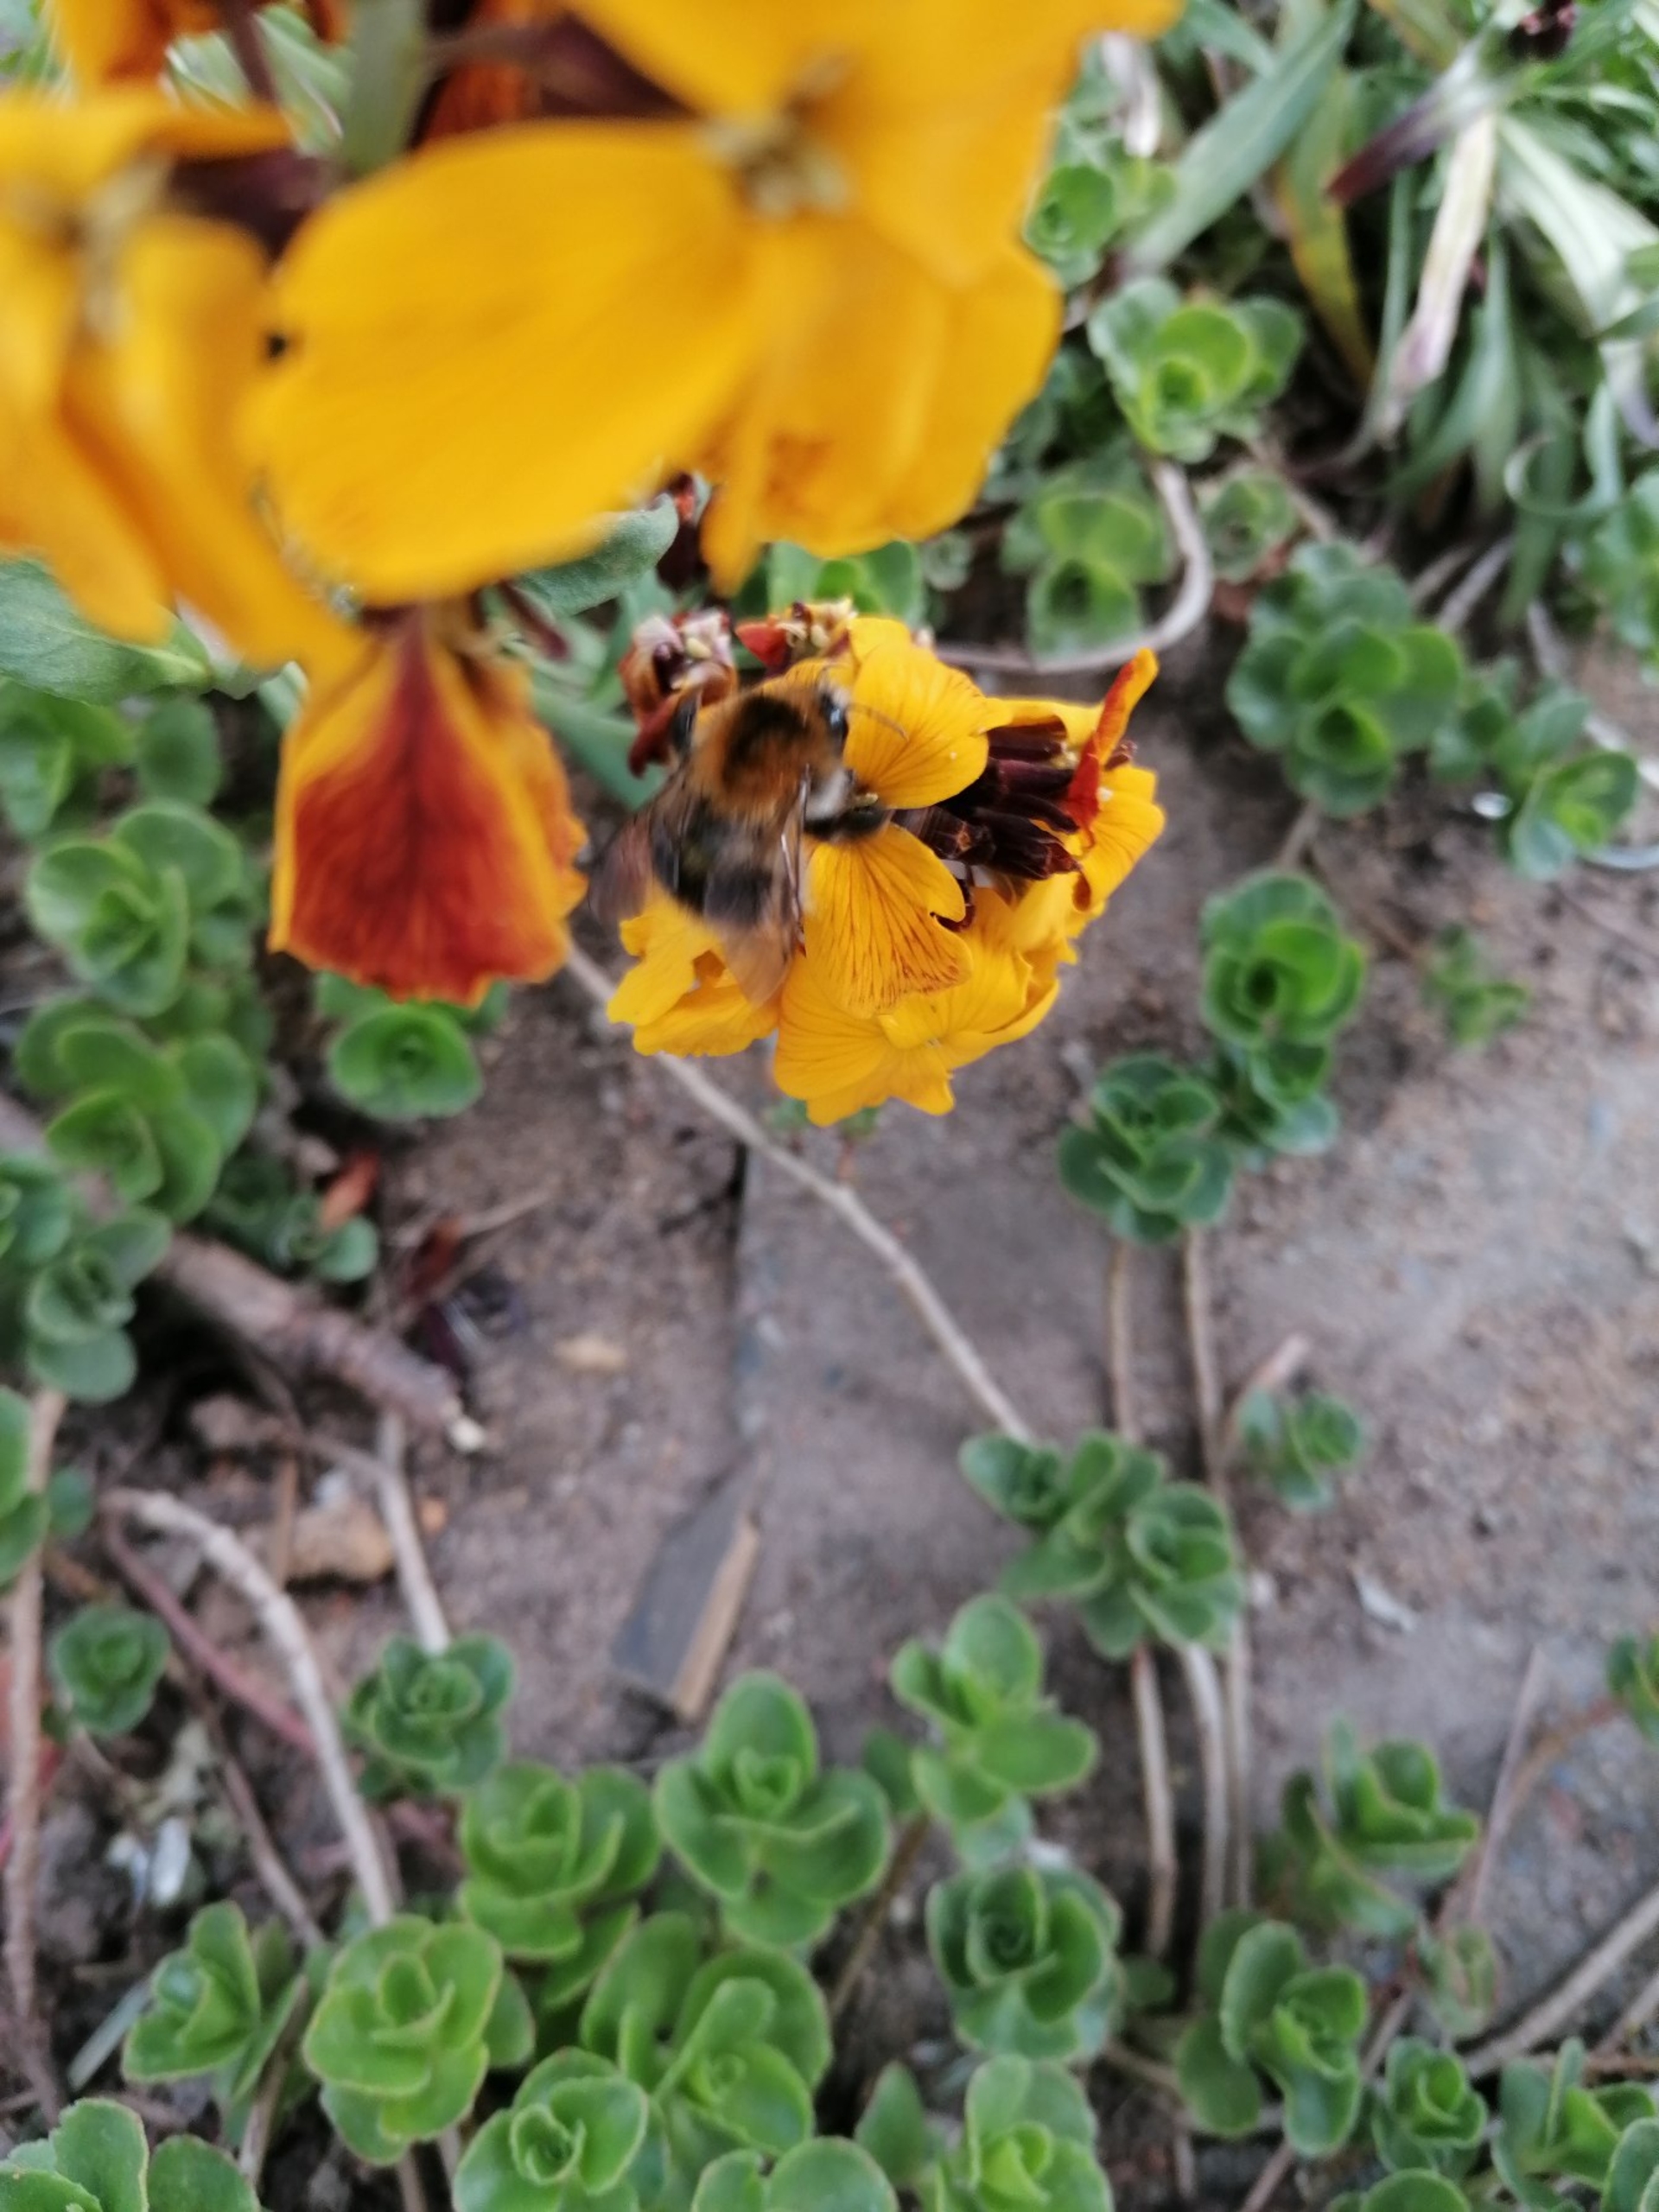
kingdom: Animalia
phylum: Arthropoda
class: Insecta
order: Hymenoptera
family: Apidae
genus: Bombus
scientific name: Bombus pascuorum
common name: Agerhumle
